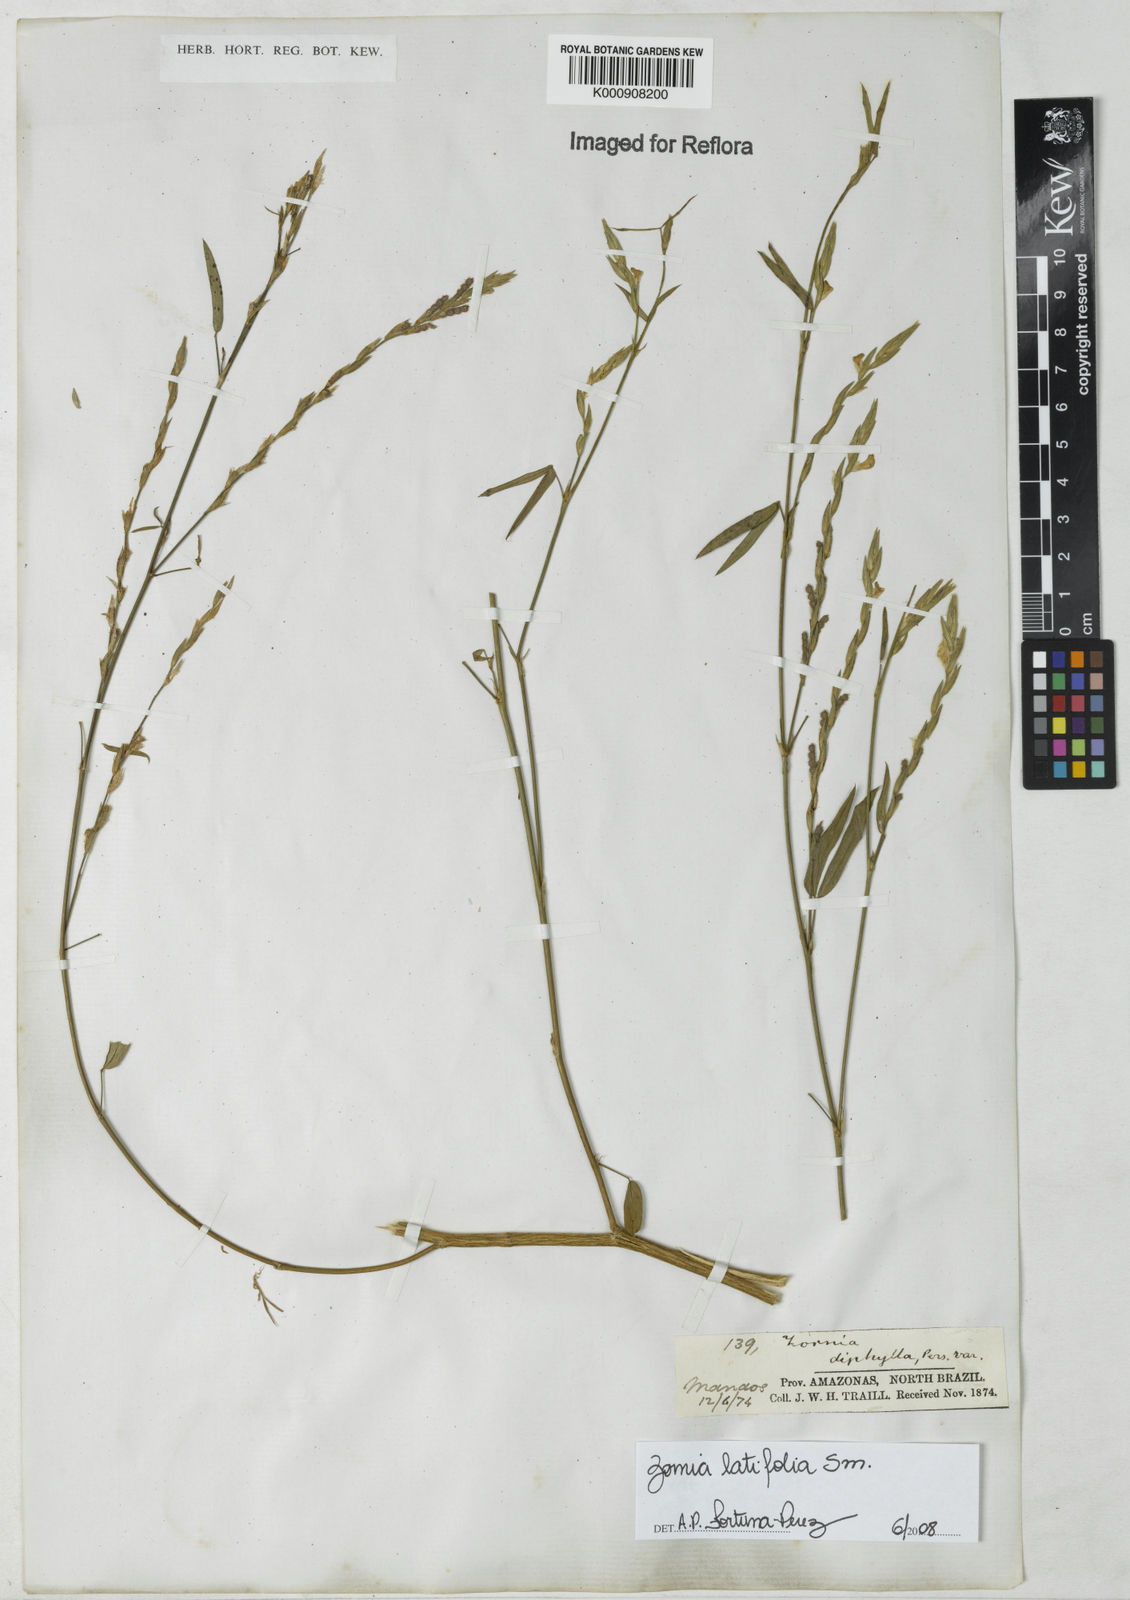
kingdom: Plantae
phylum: Tracheophyta
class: Magnoliopsida
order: Fabales
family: Fabaceae
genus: Zornia
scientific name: Zornia latifolia
